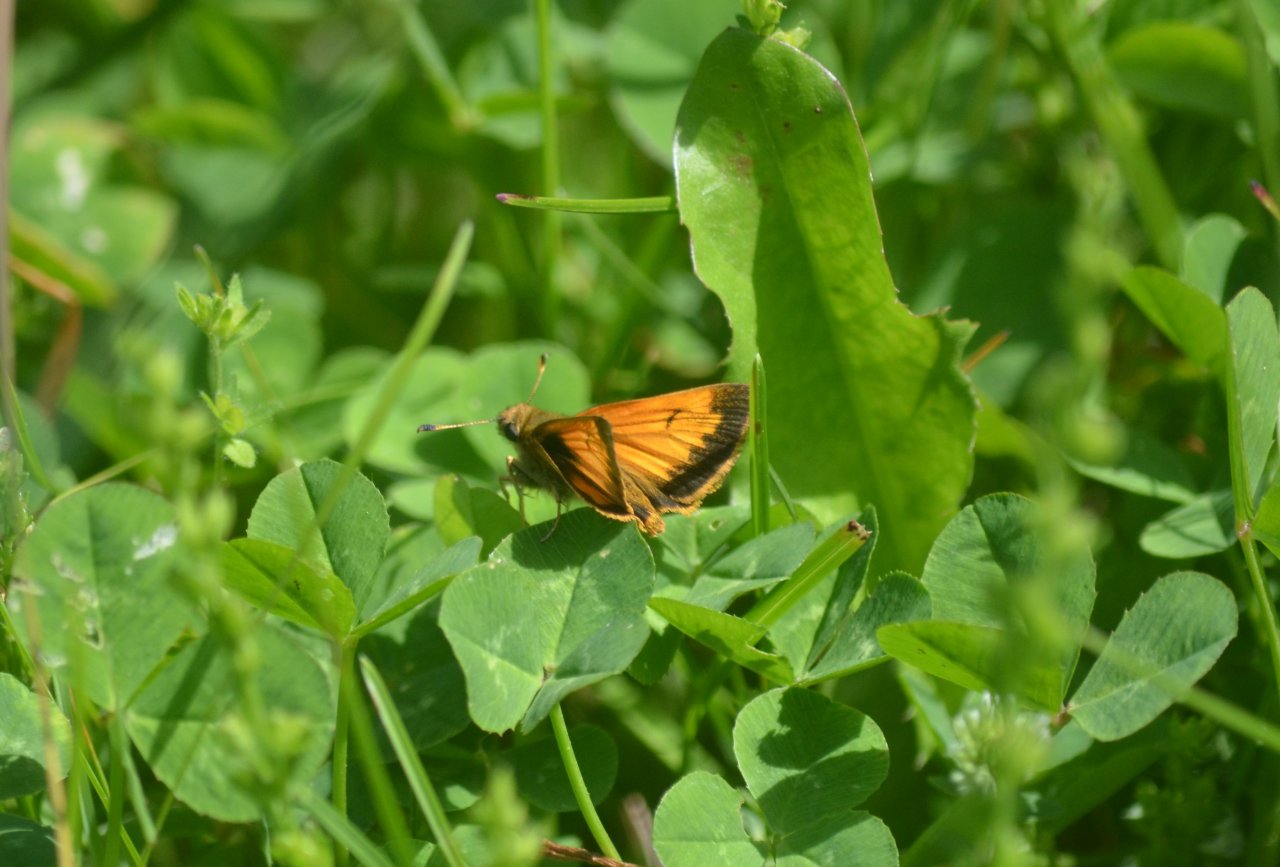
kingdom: Animalia
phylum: Arthropoda
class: Insecta
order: Lepidoptera
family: Hesperiidae
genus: Lon
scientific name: Lon hobomok
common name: Hobomok Skipper
